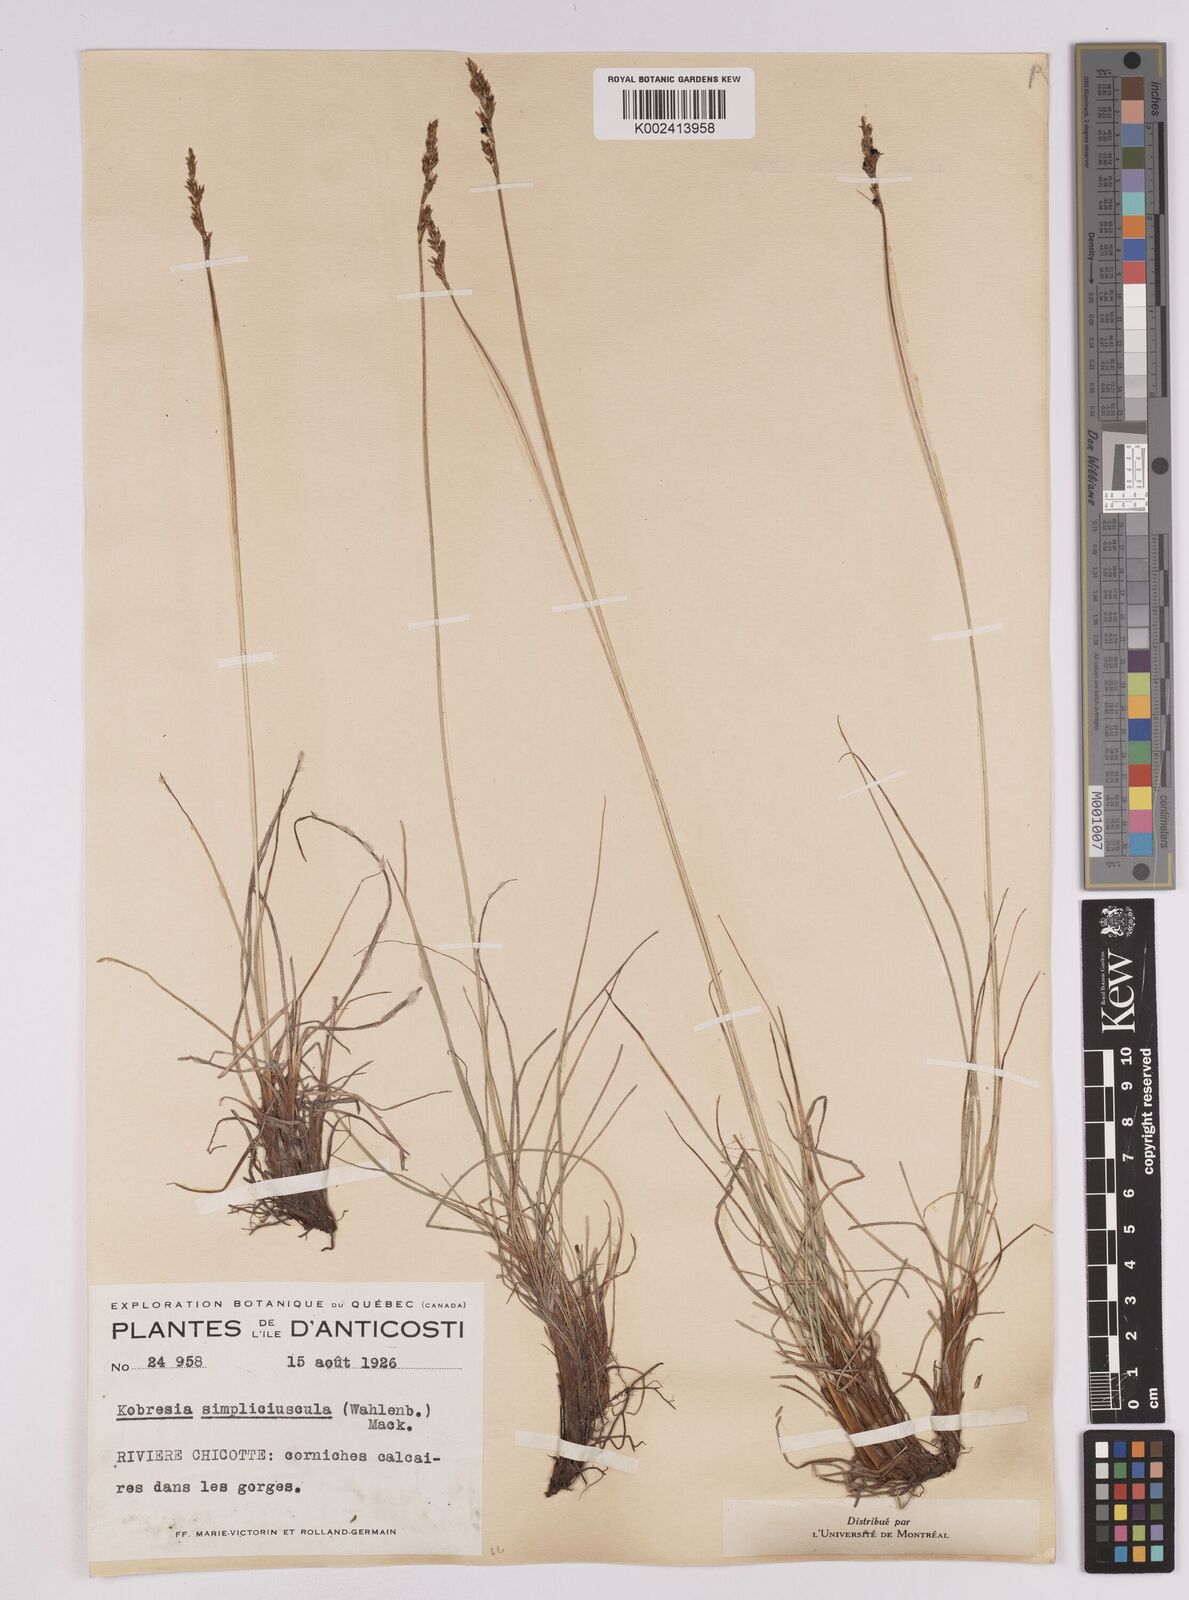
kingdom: Plantae
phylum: Tracheophyta
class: Liliopsida
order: Poales
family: Cyperaceae
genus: Carex
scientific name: Carex simpliciuscula
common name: Simple bog sedge
